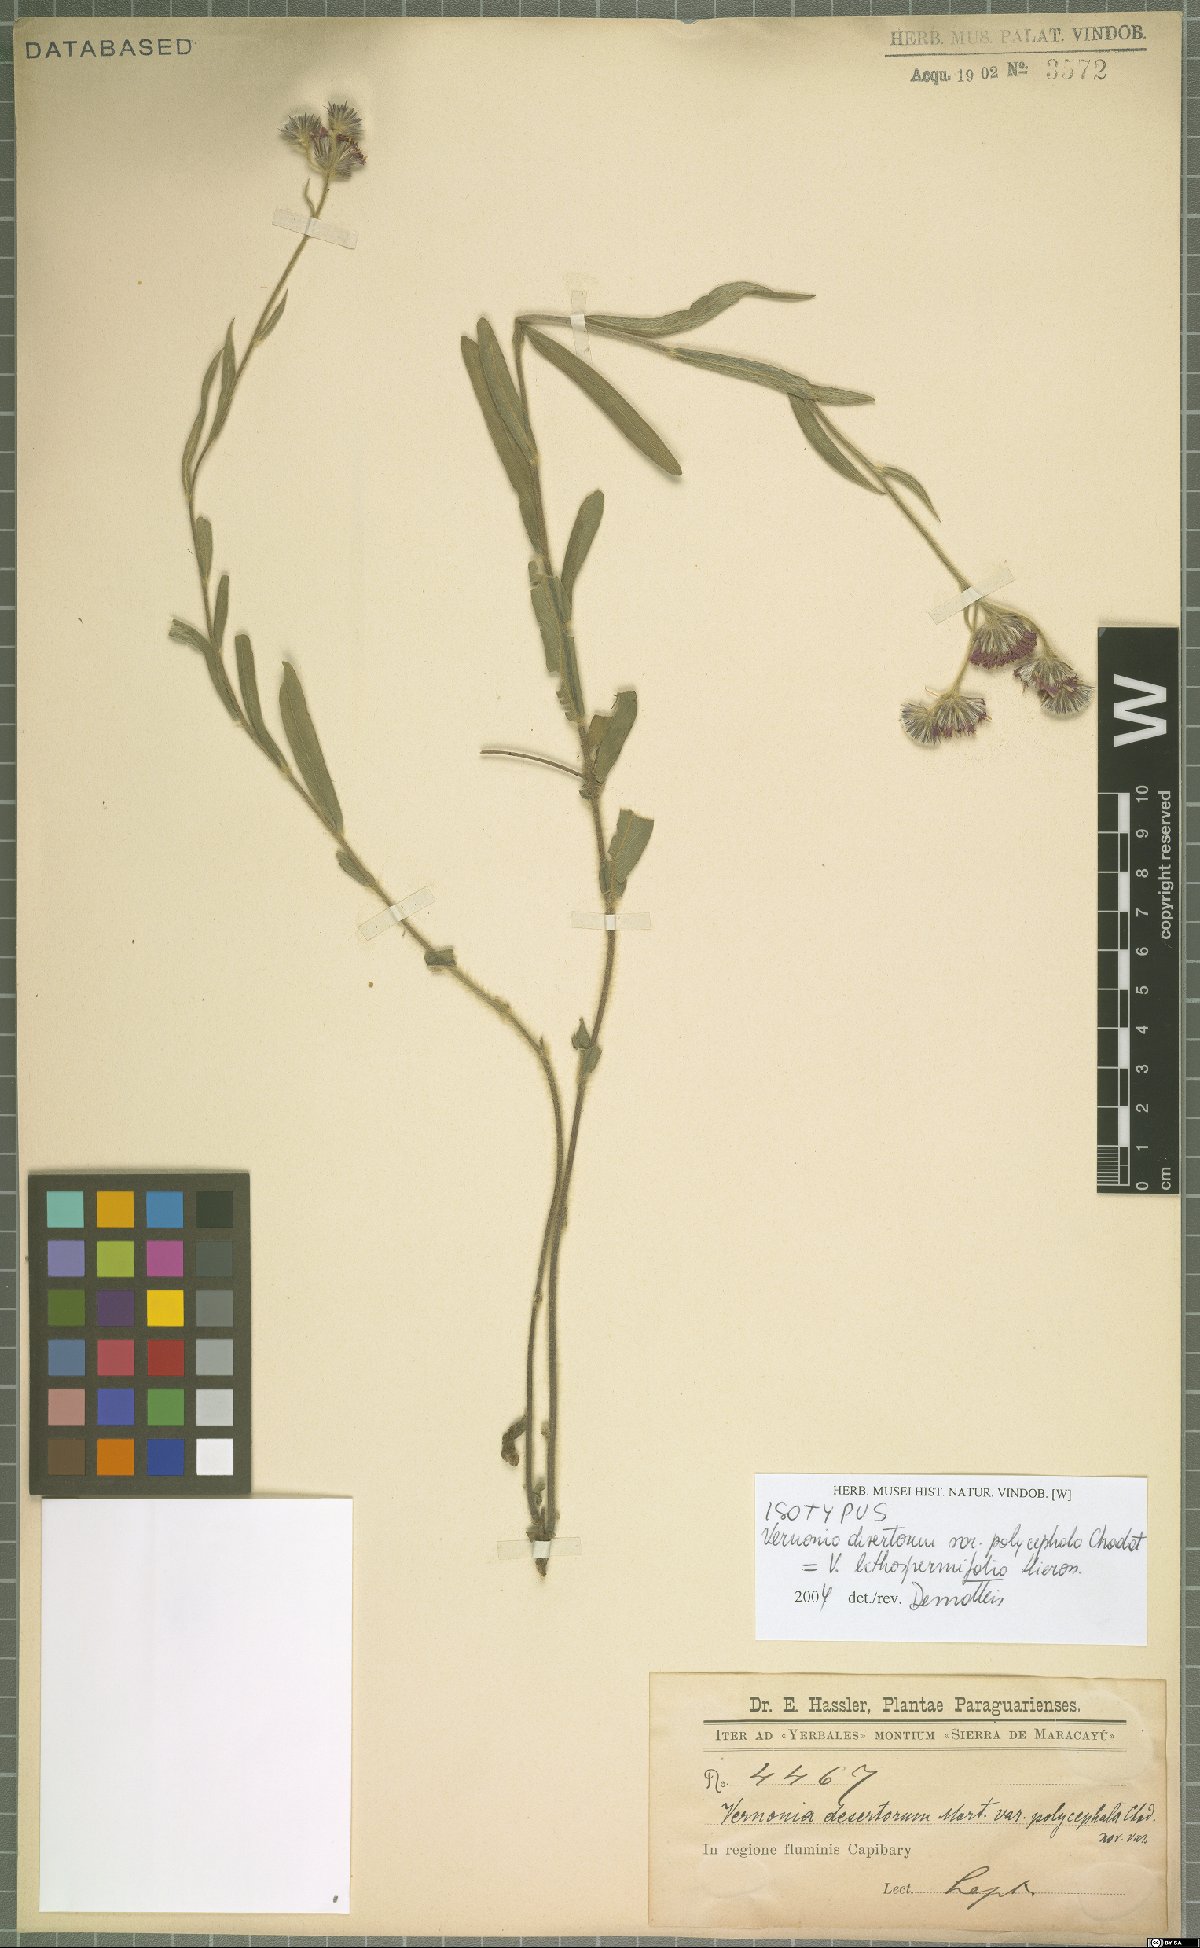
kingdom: Plantae
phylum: Tracheophyta
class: Magnoliopsida
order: Asterales
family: Asteraceae
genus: Chrysolaena
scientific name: Chrysolaena lithospermifolia
